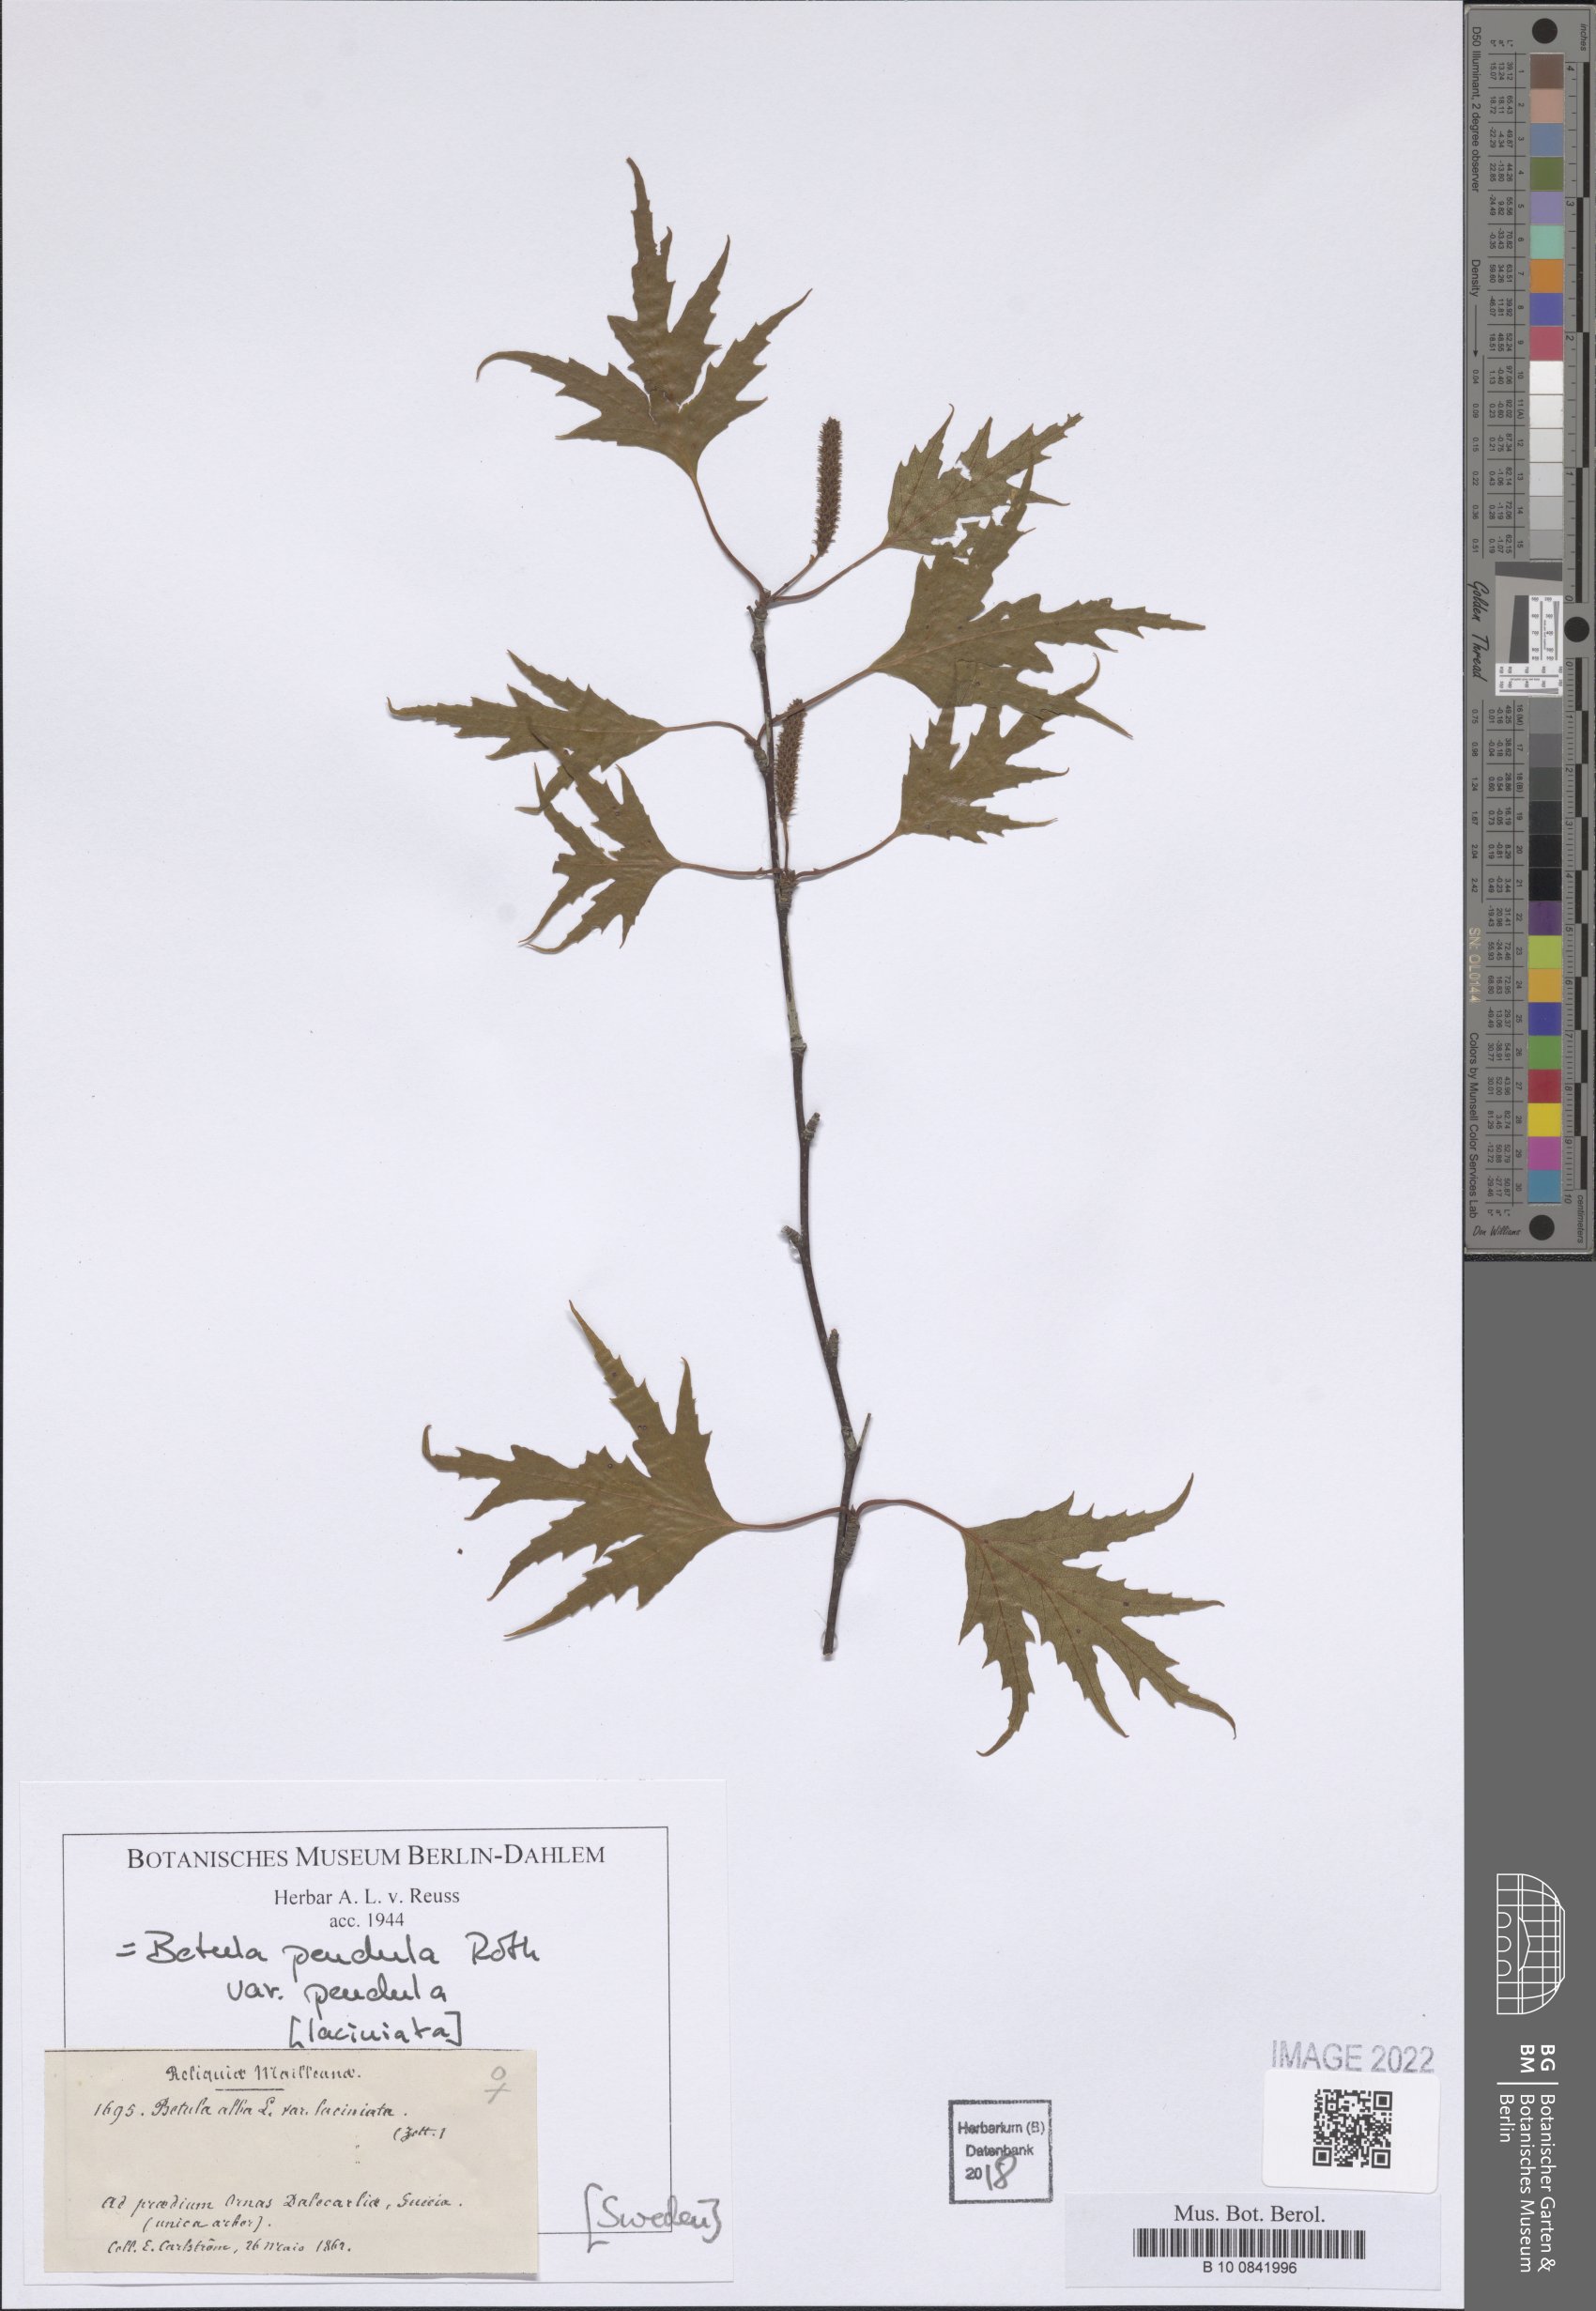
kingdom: Plantae
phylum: Tracheophyta
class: Magnoliopsida
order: Fagales
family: Betulaceae
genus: Betula
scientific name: Betula pendula
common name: Silver birch
